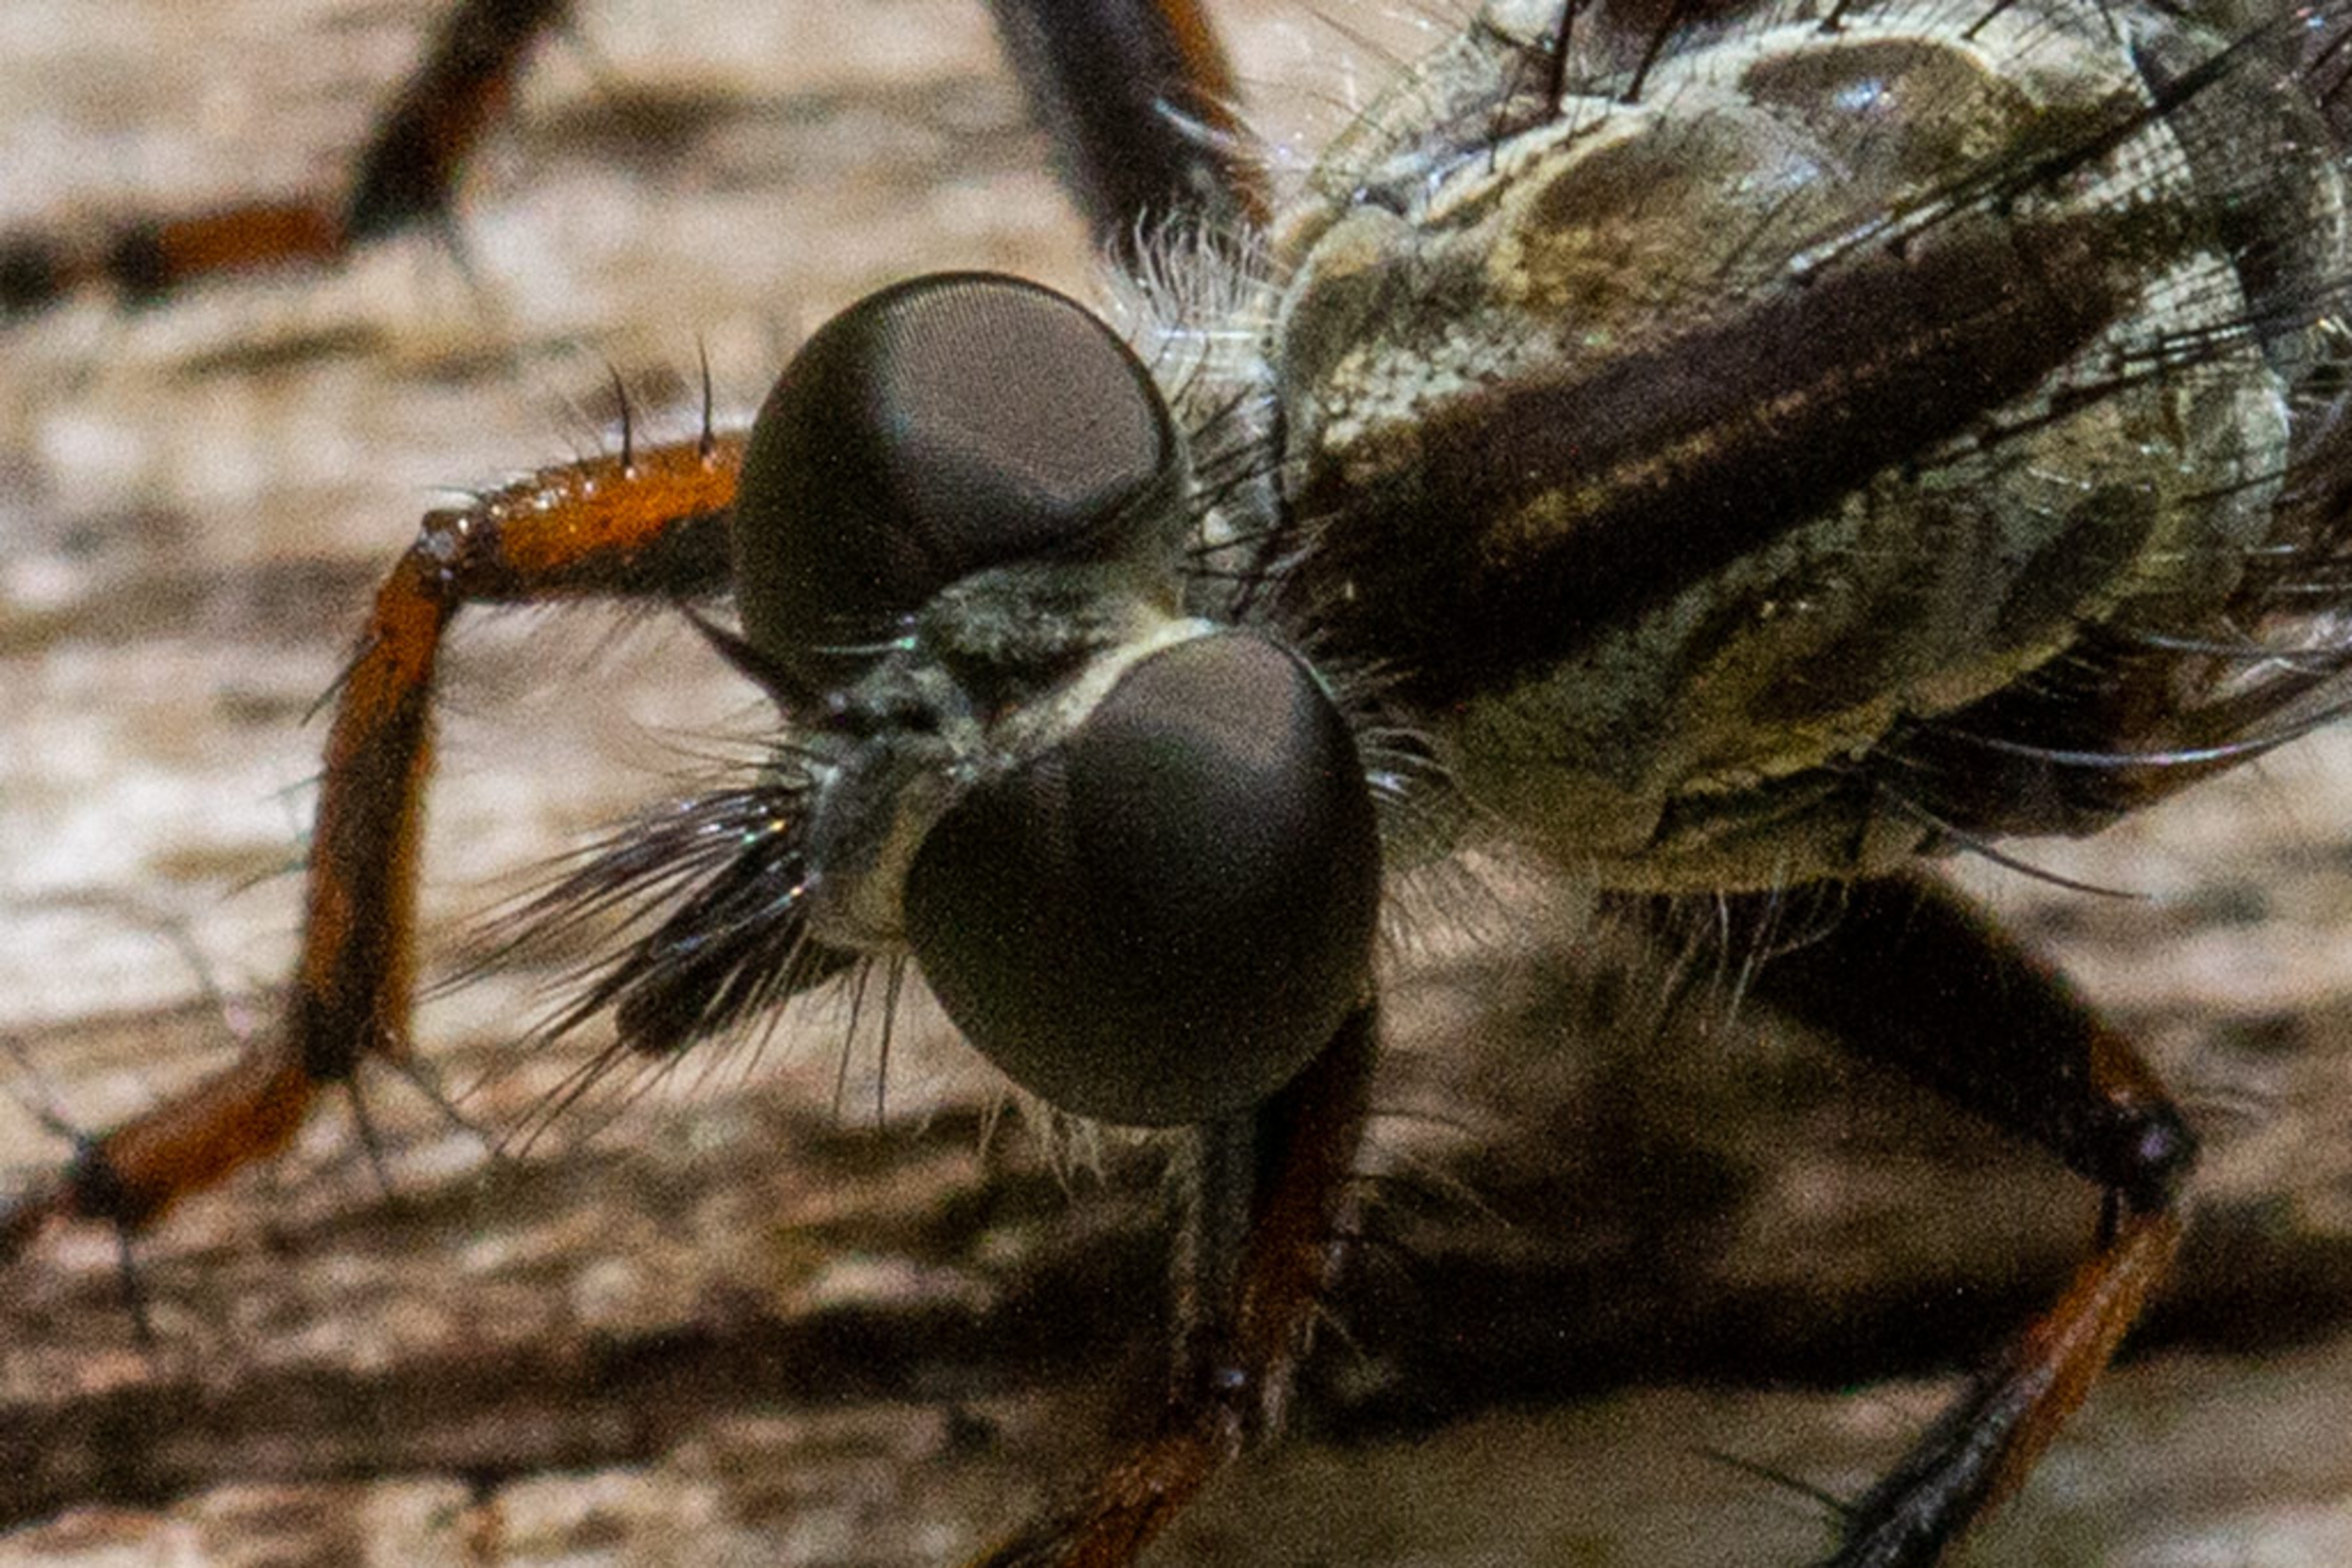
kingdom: Animalia
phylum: Arthropoda
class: Insecta
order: Diptera
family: Asilidae
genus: Machimus
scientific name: Machimus atricapillus
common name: Sort hårrovflue
